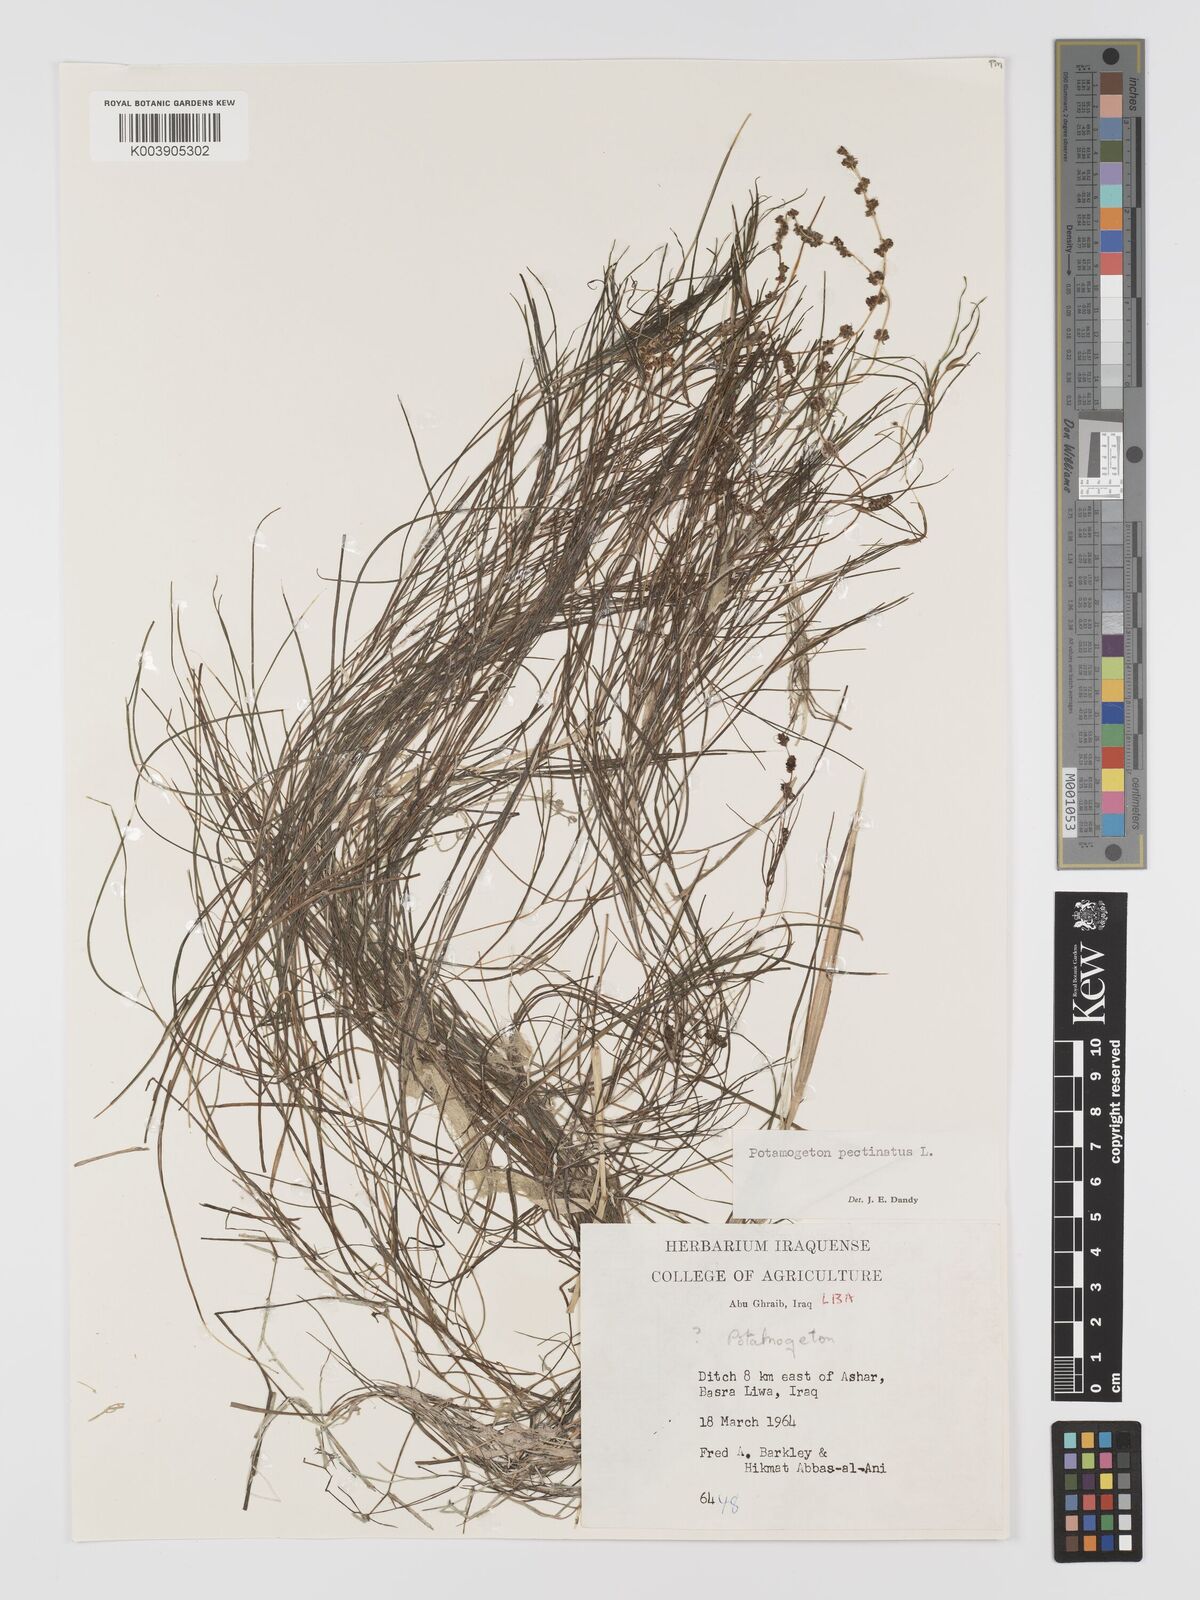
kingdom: Plantae
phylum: Tracheophyta
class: Liliopsida
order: Alismatales
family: Potamogetonaceae
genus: Stuckenia
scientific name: Stuckenia pectinata
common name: Sago pondweed
